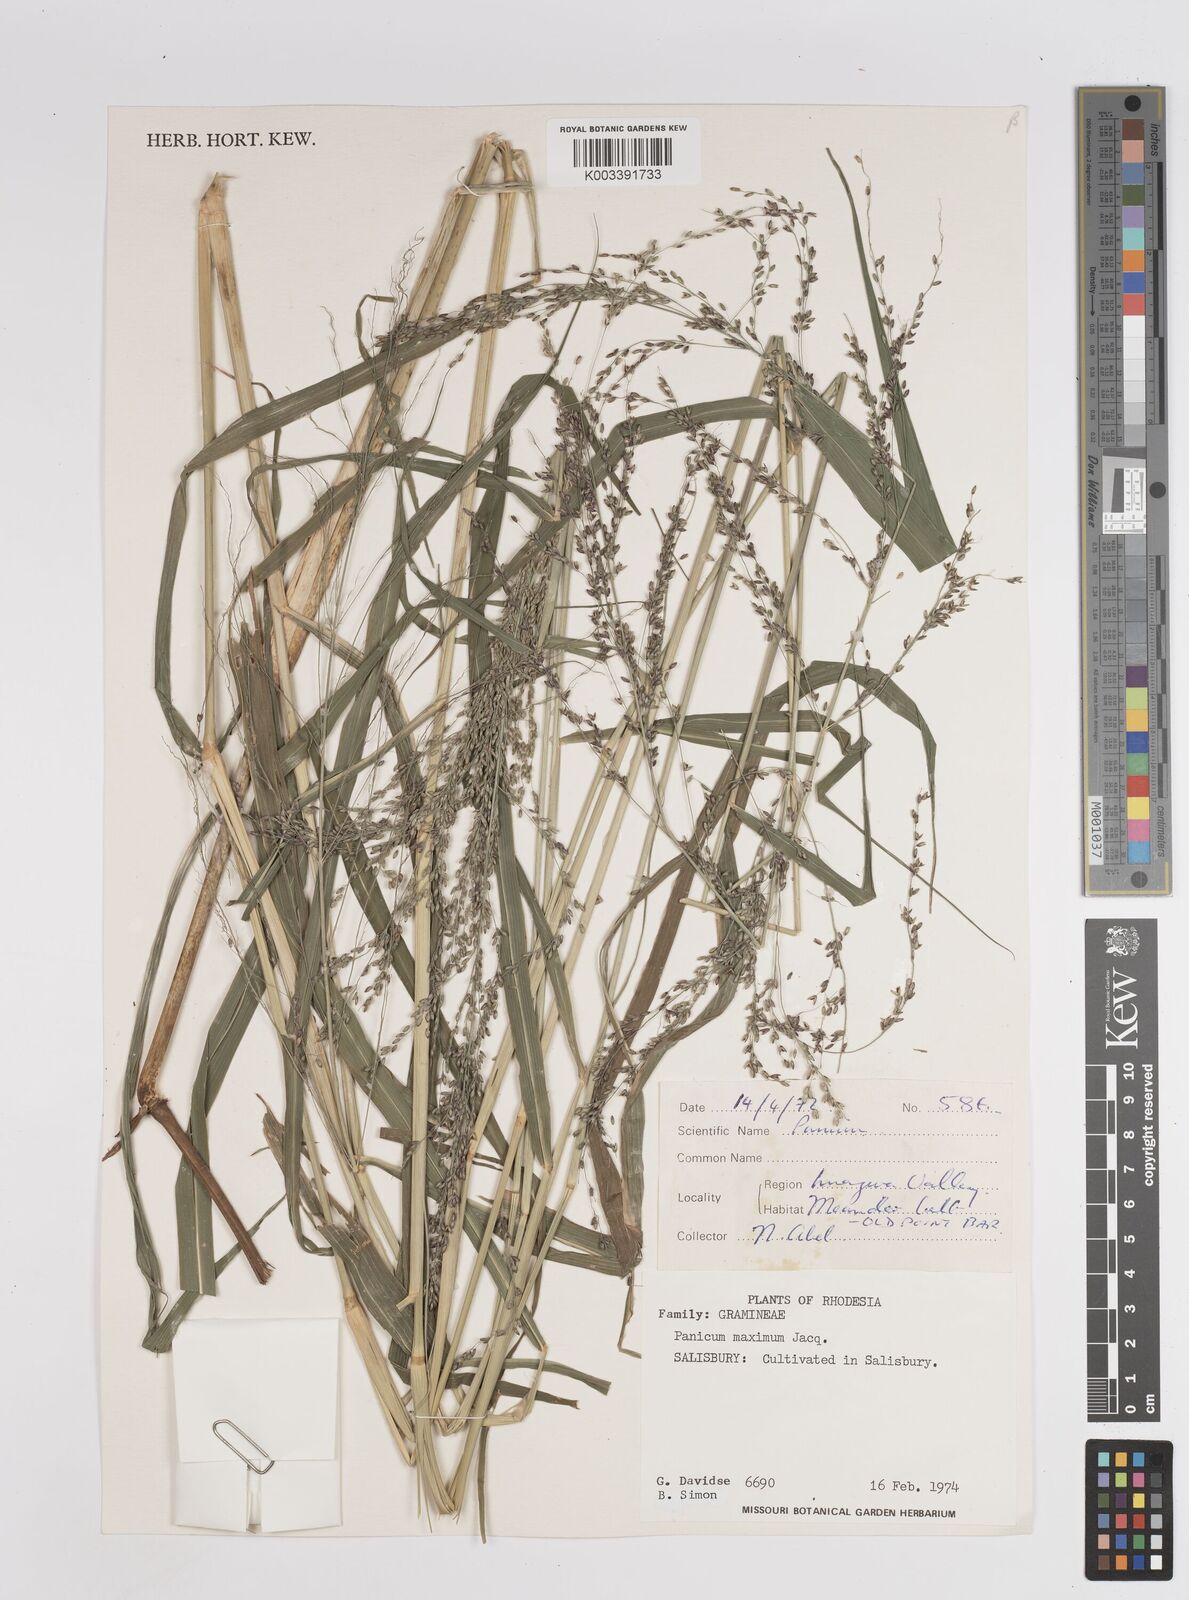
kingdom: Plantae
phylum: Tracheophyta
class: Liliopsida
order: Poales
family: Poaceae
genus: Megathyrsus
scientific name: Megathyrsus maximus
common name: Guineagrass
